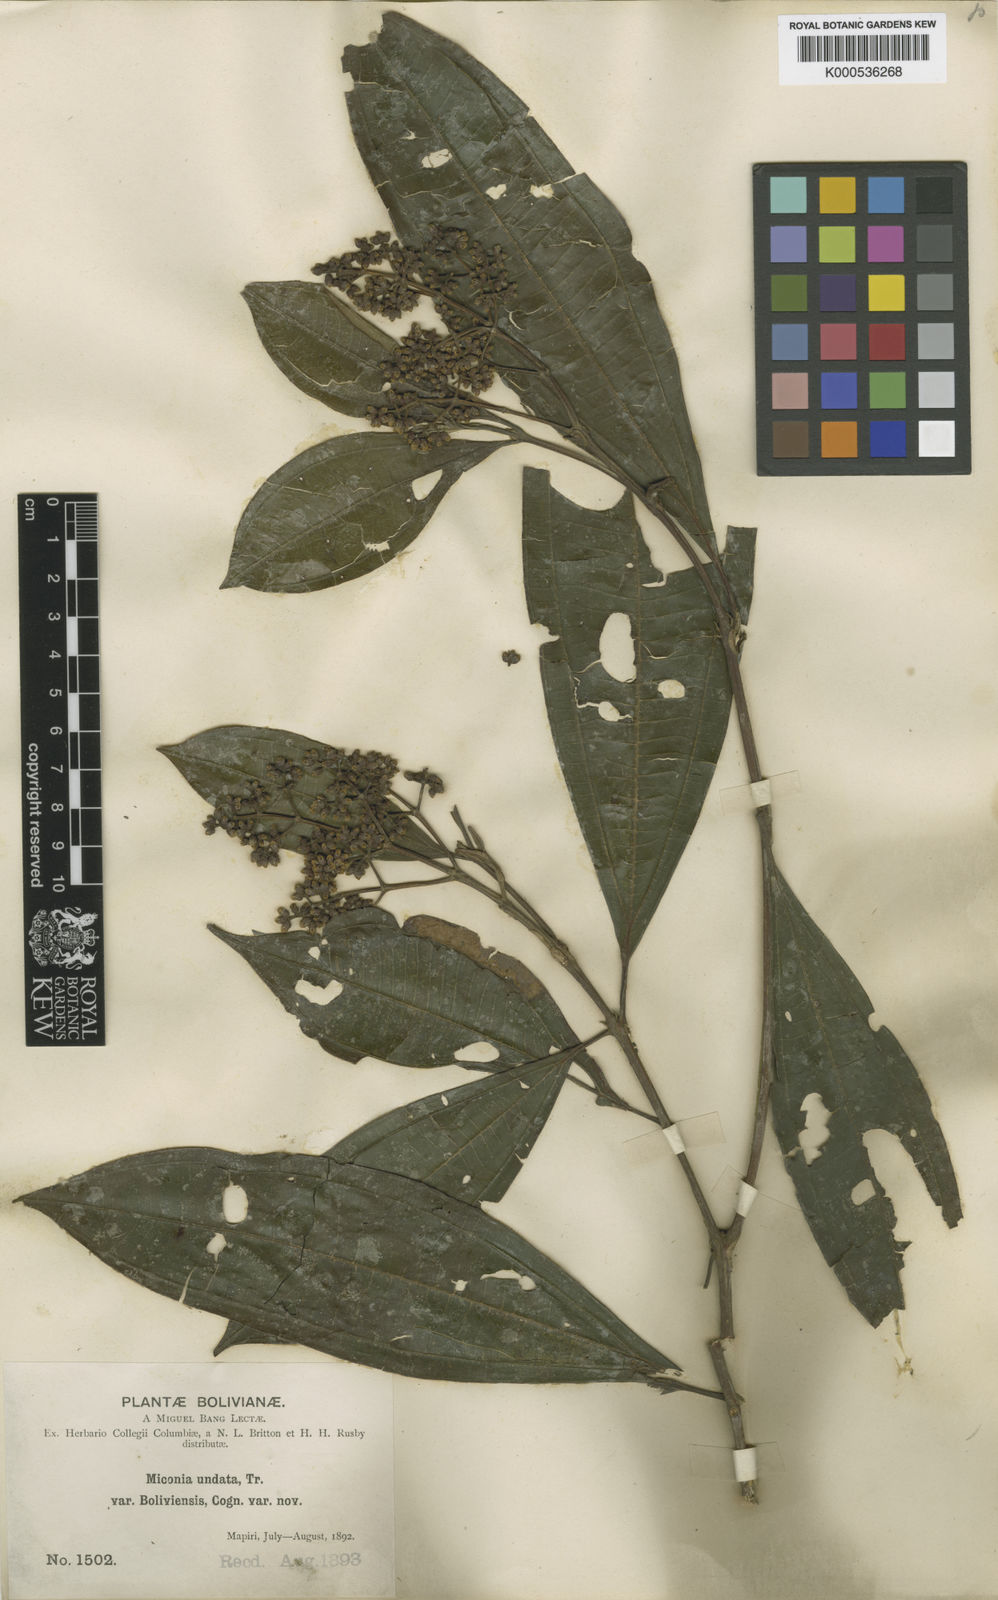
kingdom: Plantae
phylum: Tracheophyta
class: Magnoliopsida
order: Myrtales
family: Melastomataceae
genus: Miconia
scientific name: Miconia undata
